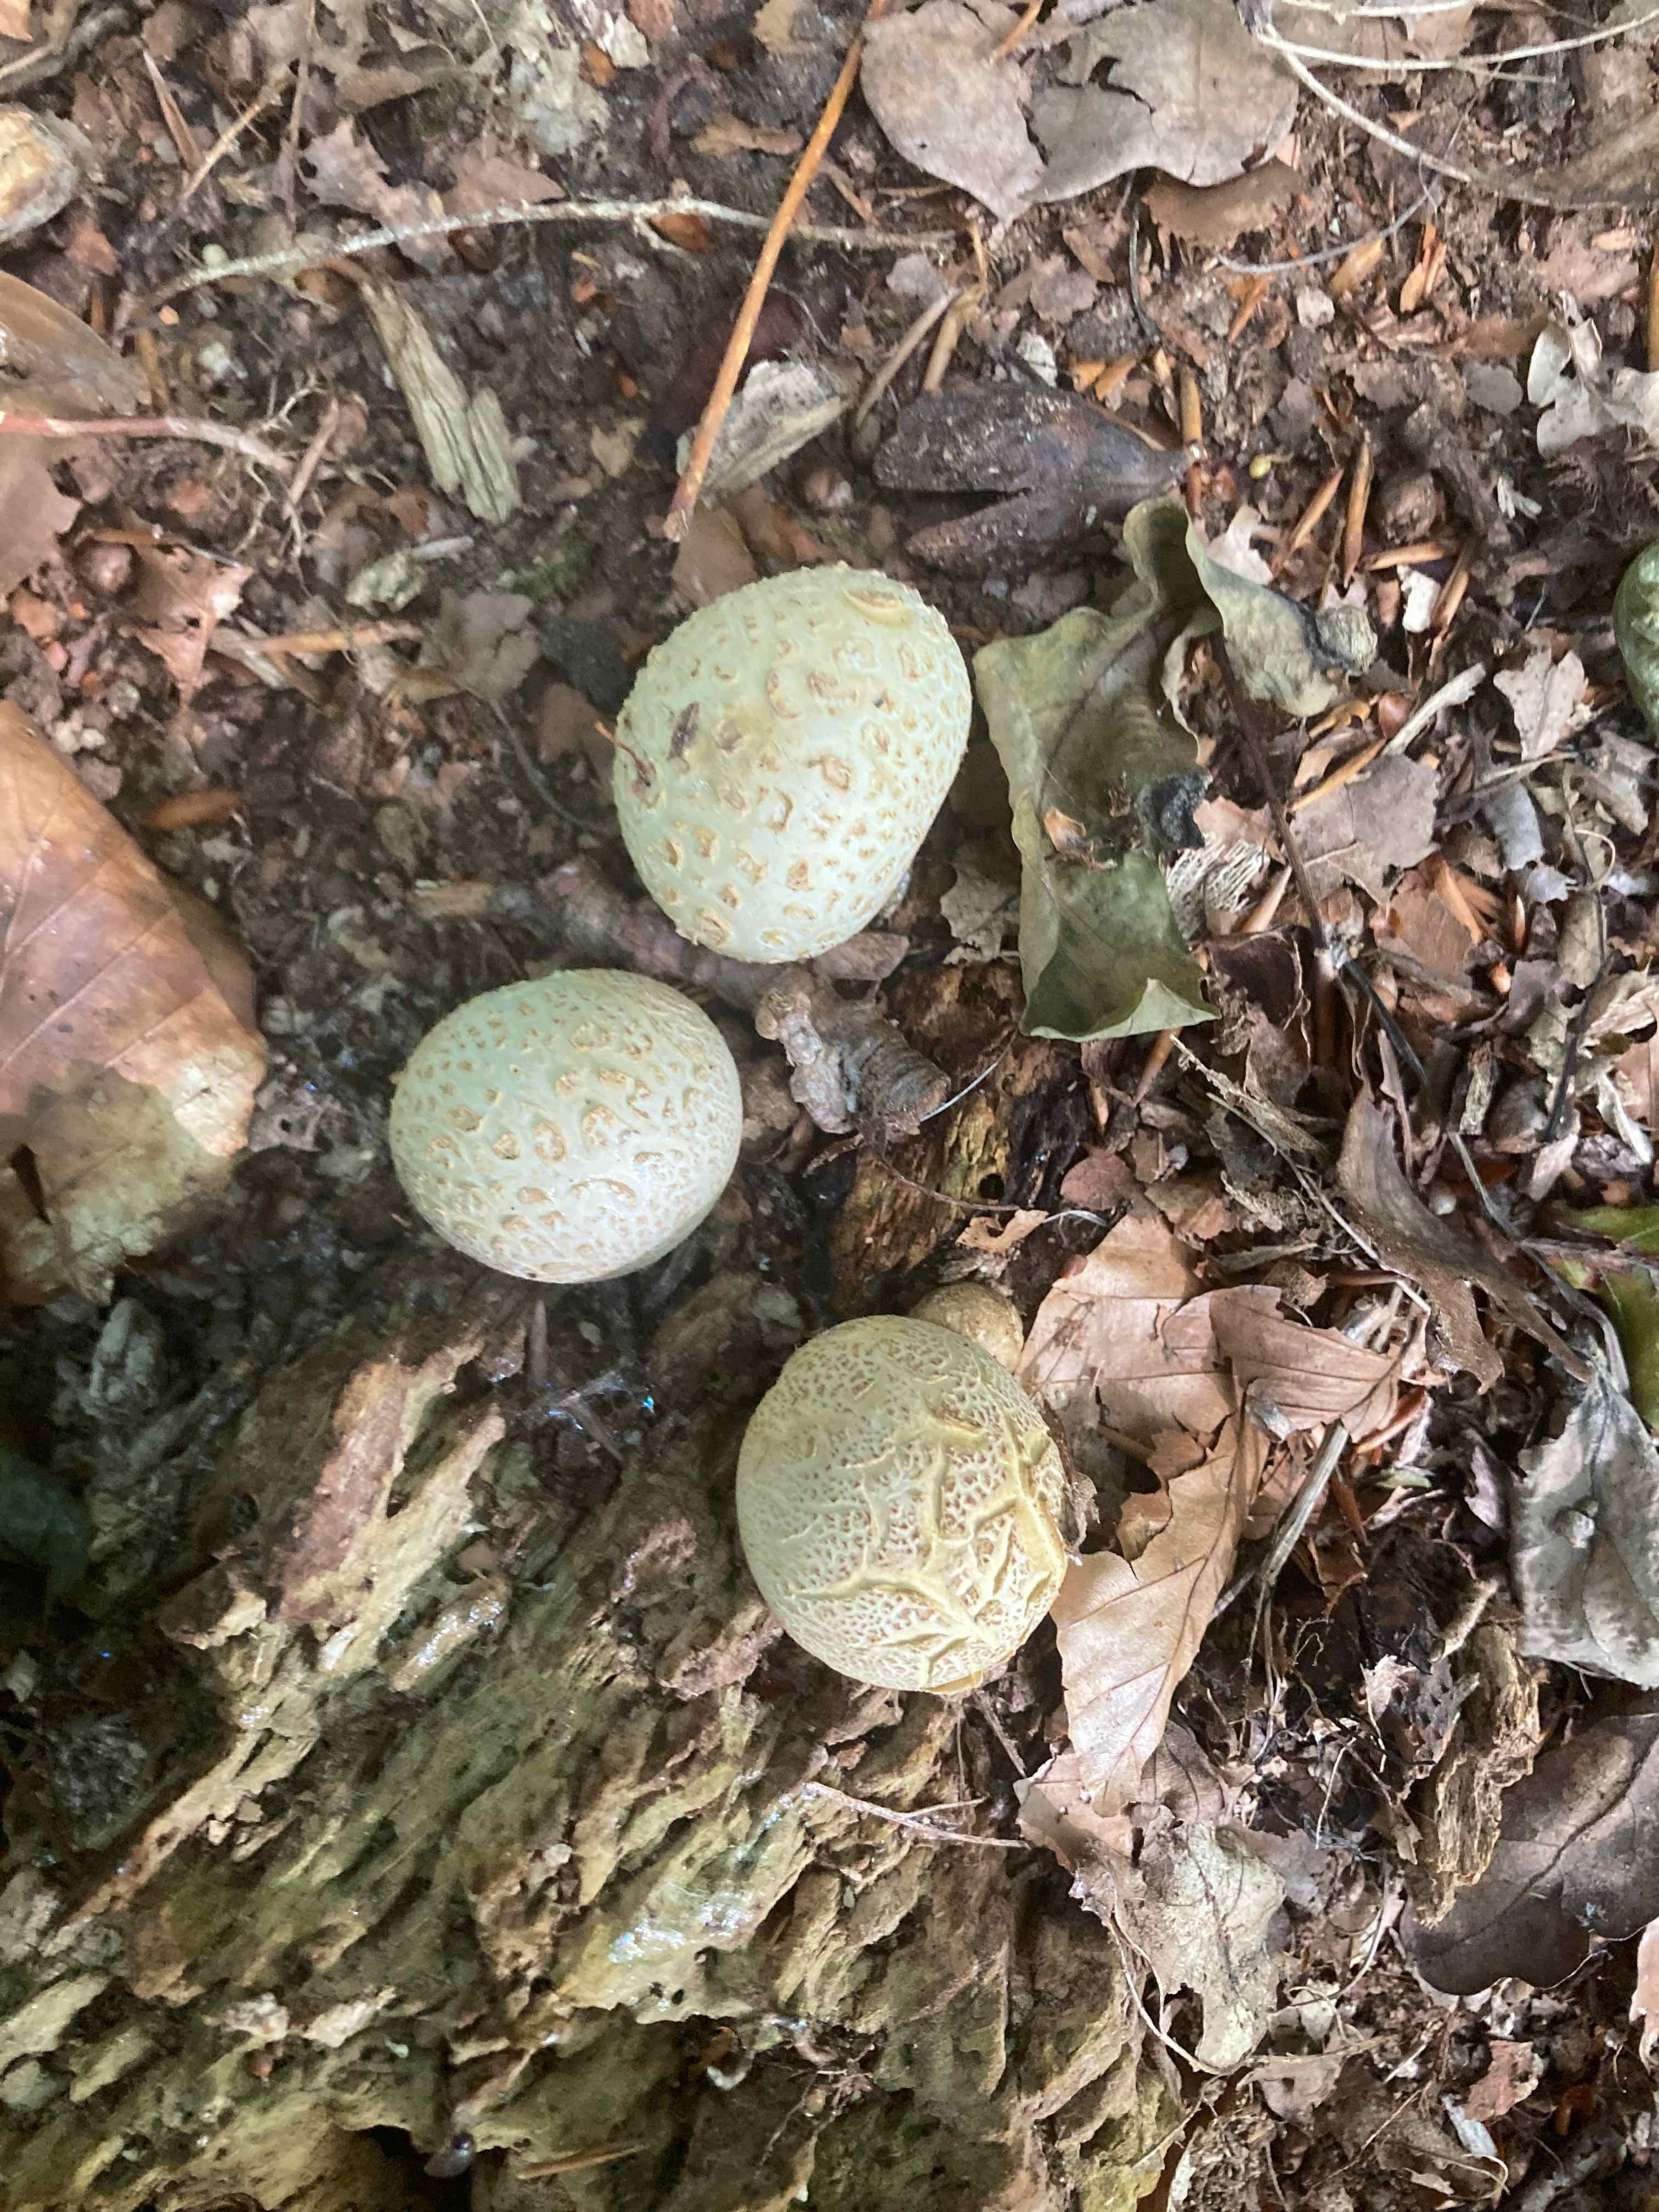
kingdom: Fungi
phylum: Basidiomycota
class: Agaricomycetes
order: Boletales
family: Sclerodermataceae
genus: Scleroderma
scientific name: Scleroderma citrinum
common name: almindelig bruskbold
